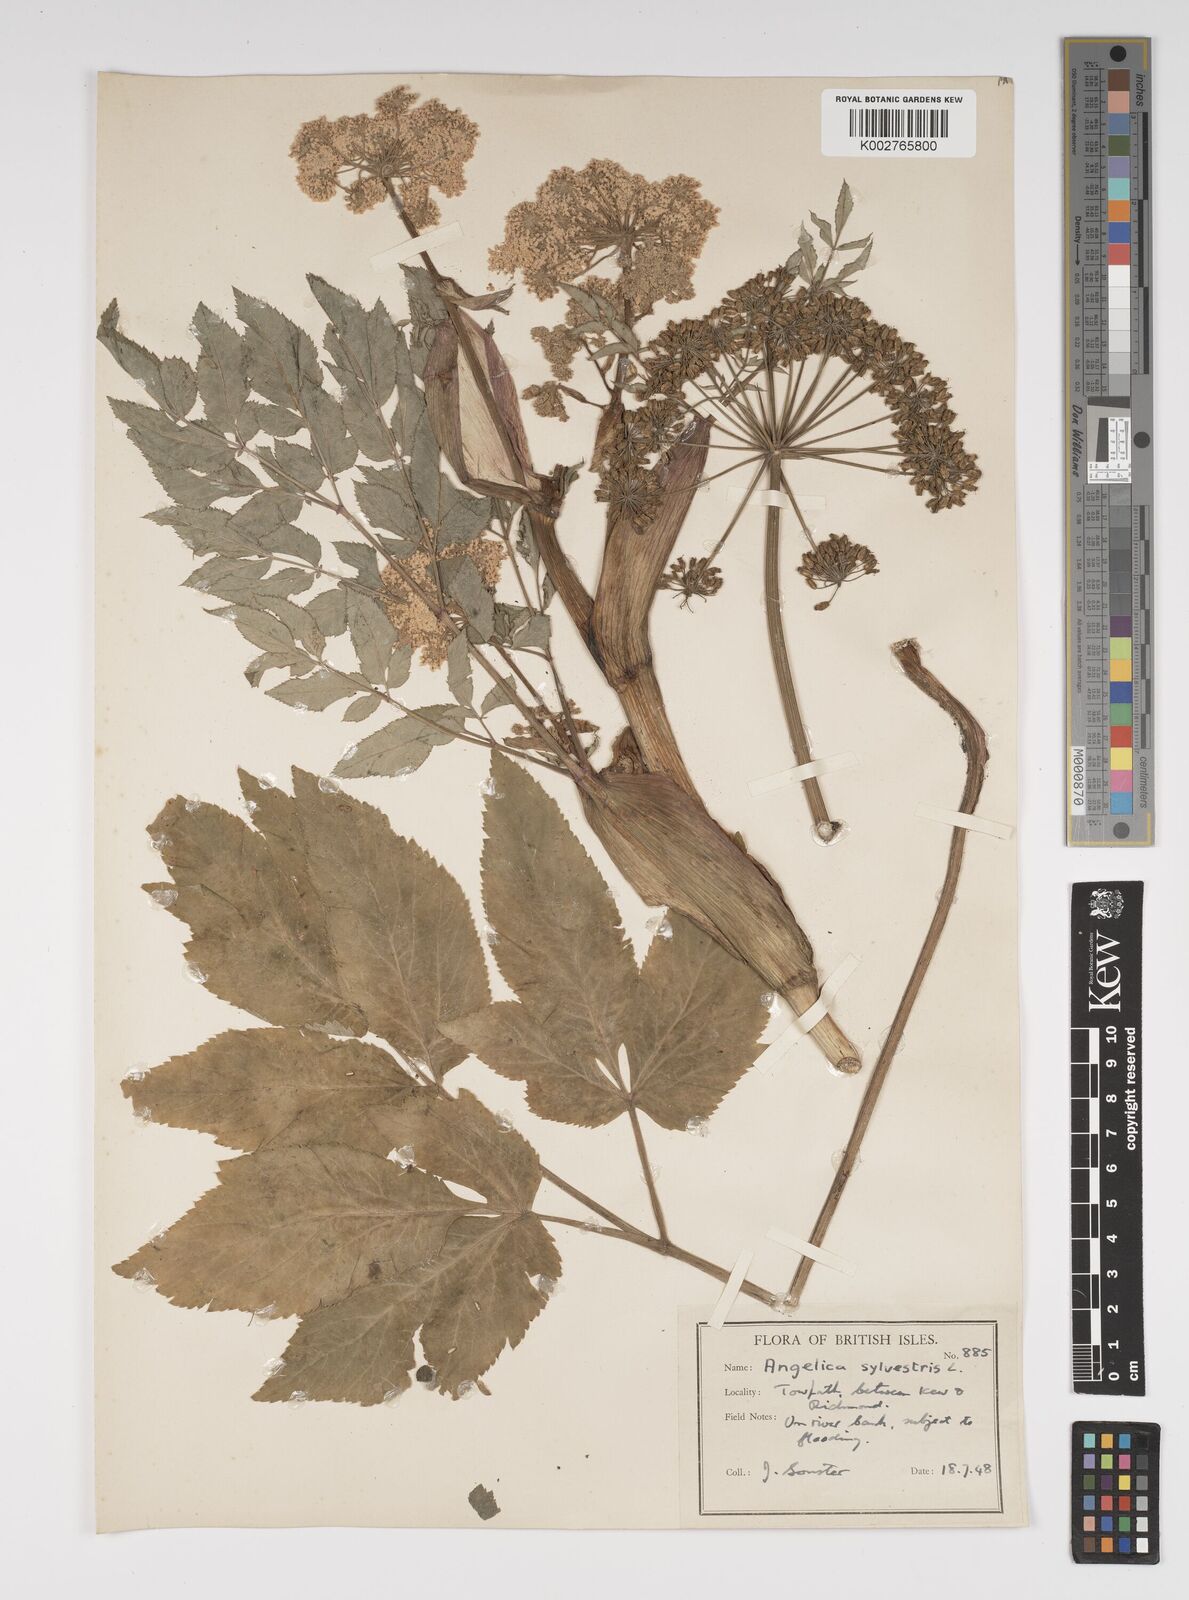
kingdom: Plantae
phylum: Tracheophyta
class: Magnoliopsida
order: Apiales
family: Apiaceae
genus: Angelica
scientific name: Angelica sylvestris
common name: Wild angelica
